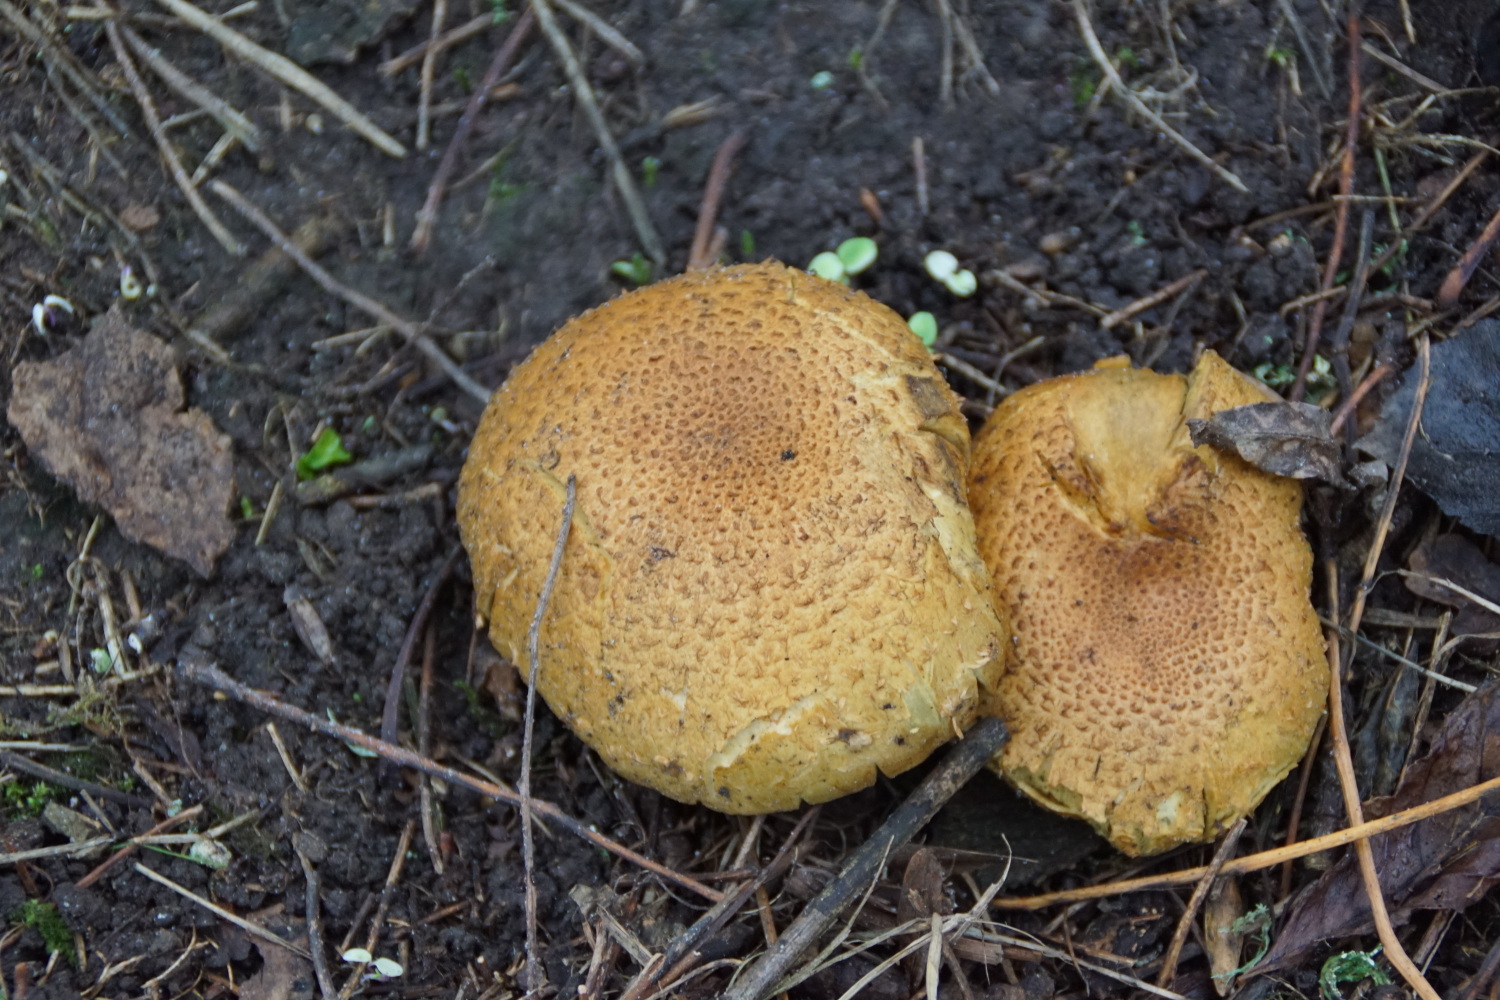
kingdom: Fungi
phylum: Basidiomycota
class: Agaricomycetes
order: Agaricales
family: Strophariaceae
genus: Pholiota
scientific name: Pholiota squarrosa
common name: krumskællet skælhat
